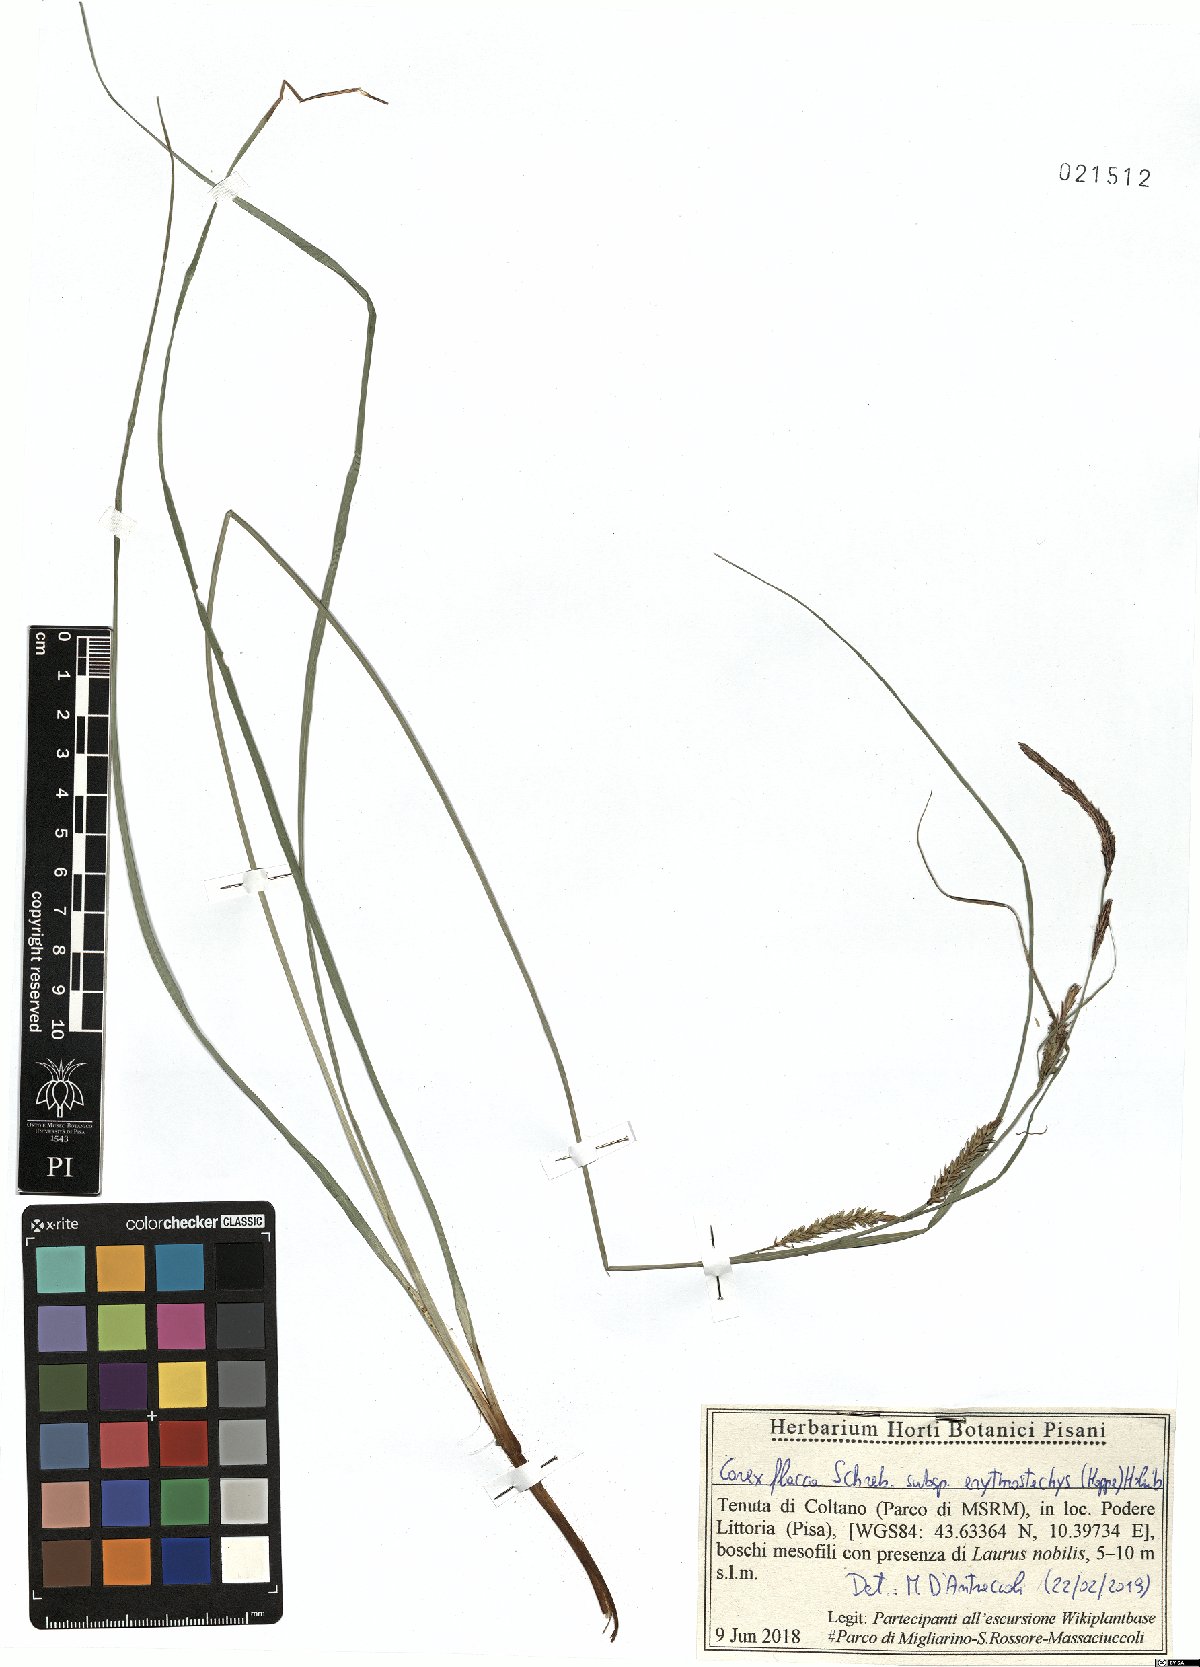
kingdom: Plantae
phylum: Tracheophyta
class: Liliopsida
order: Poales
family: Cyperaceae
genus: Carex
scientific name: Carex flacca
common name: Glaucous sedge
